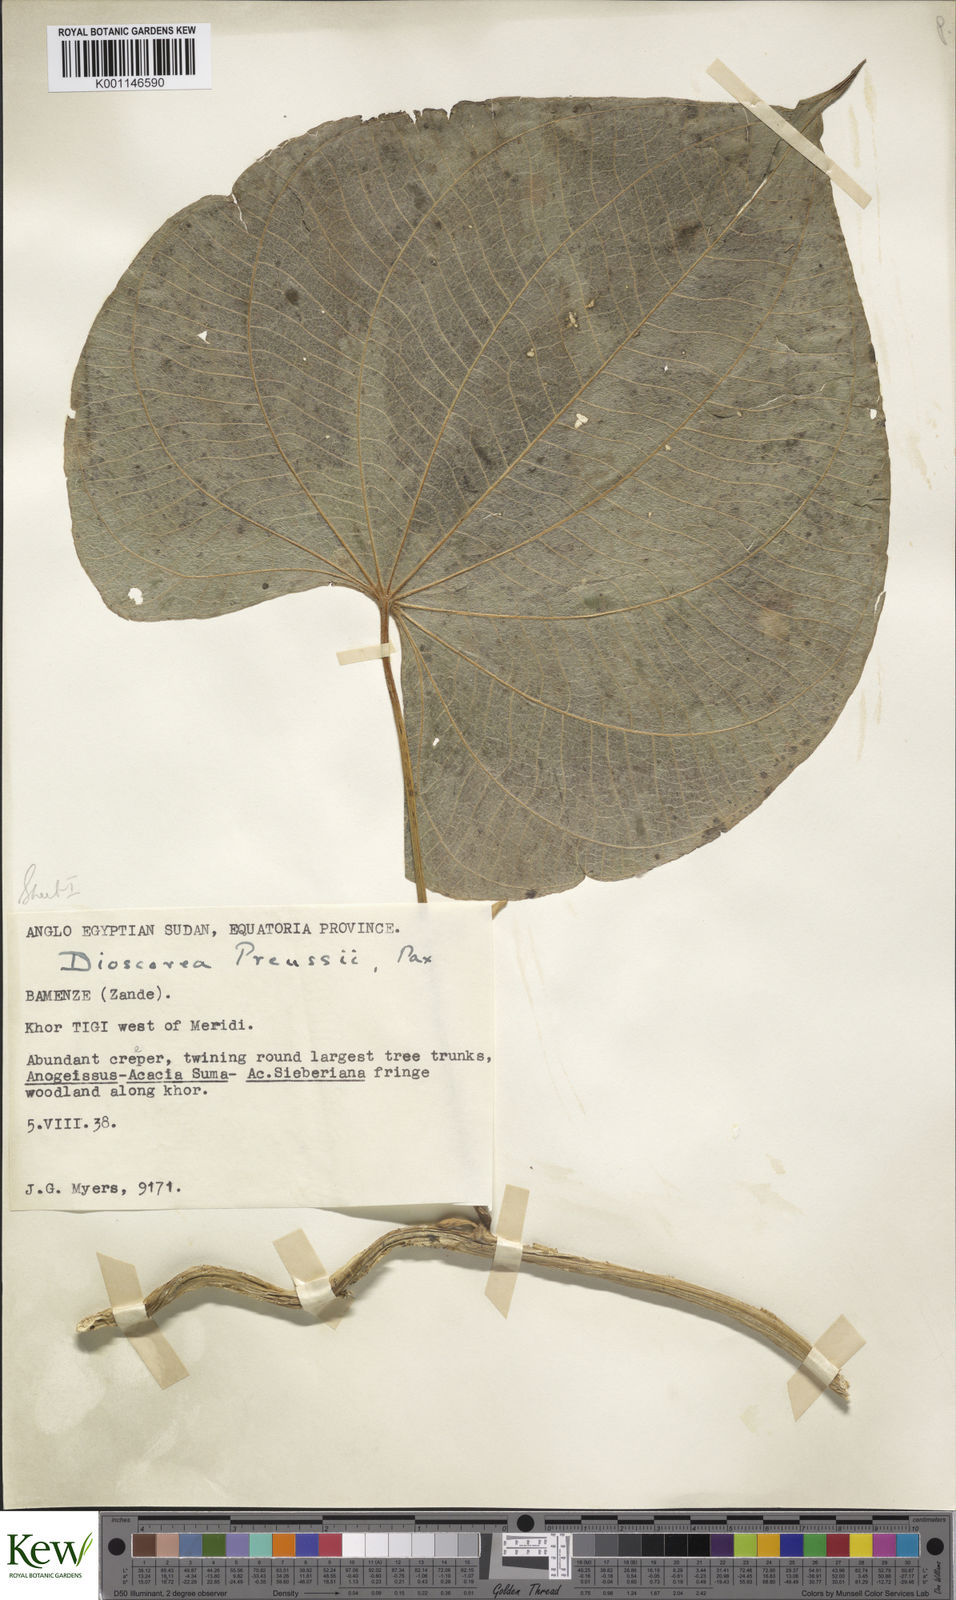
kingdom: Plantae
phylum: Tracheophyta
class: Liliopsida
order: Dioscoreales
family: Dioscoreaceae
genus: Dioscorea
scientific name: Dioscorea preussii
